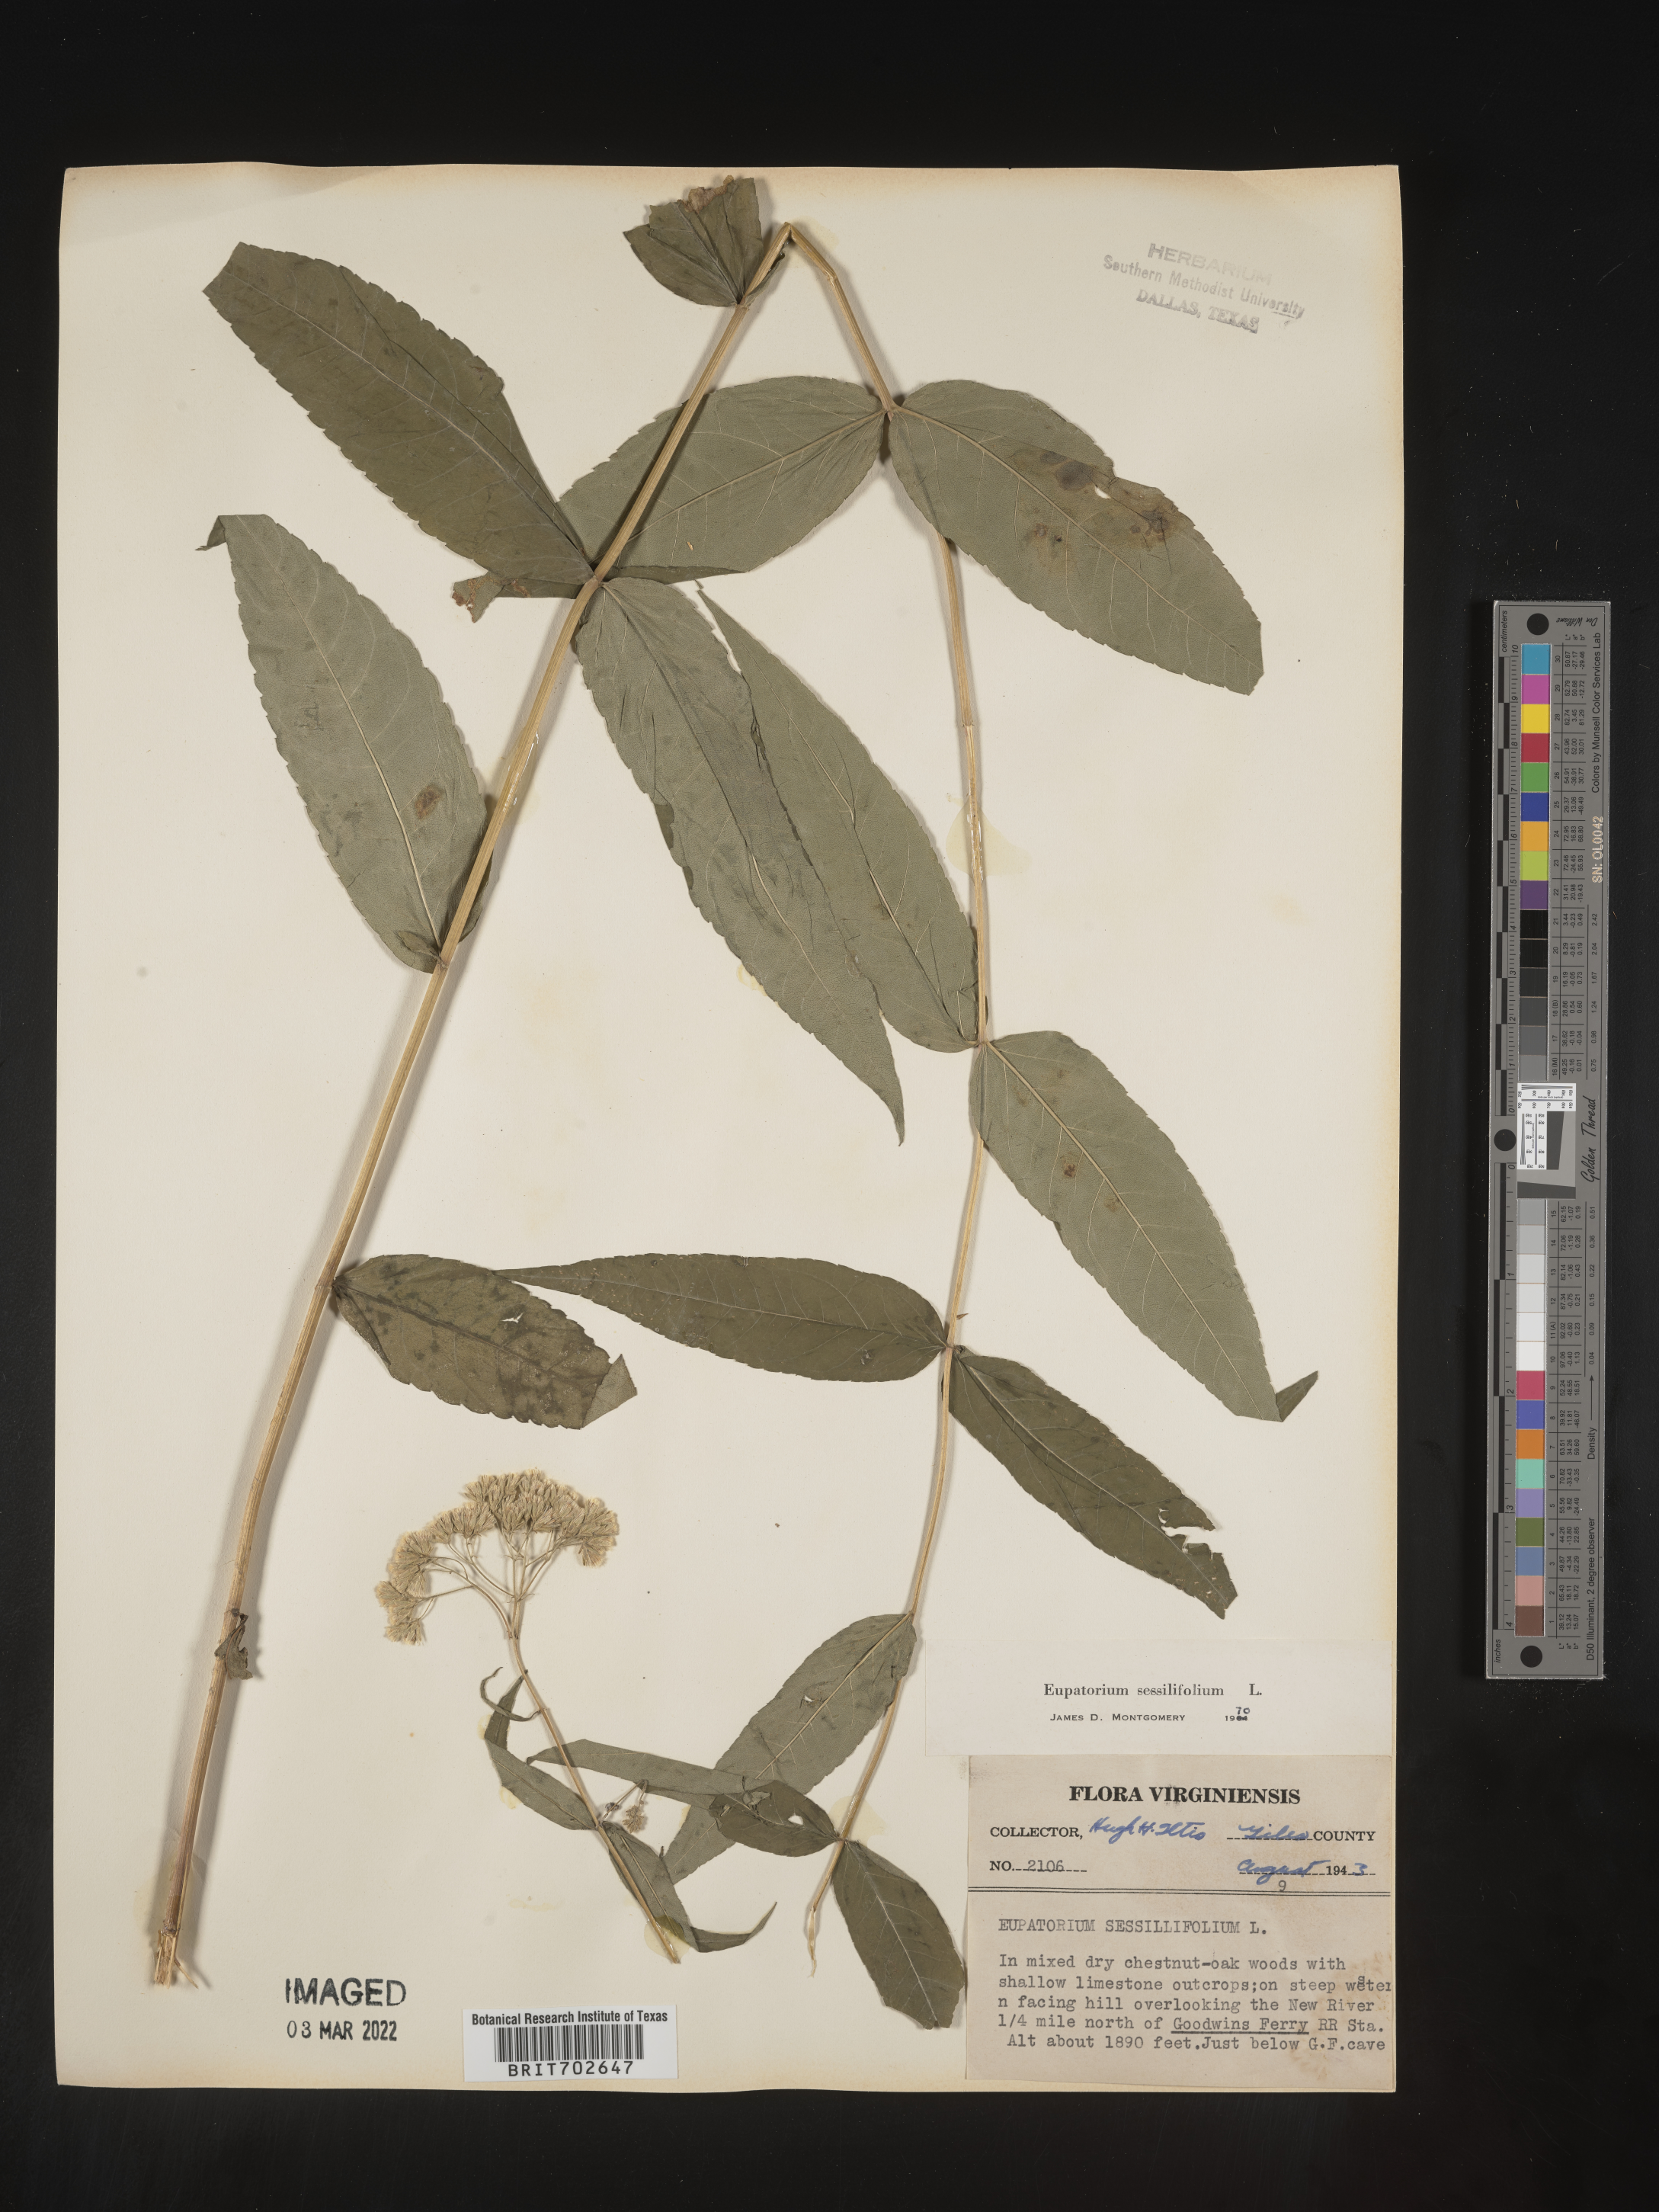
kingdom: Plantae
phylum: Tracheophyta
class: Magnoliopsida
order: Asterales
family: Asteraceae
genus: Eupatorium
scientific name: Eupatorium sessilifolium
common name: Upland boneset
